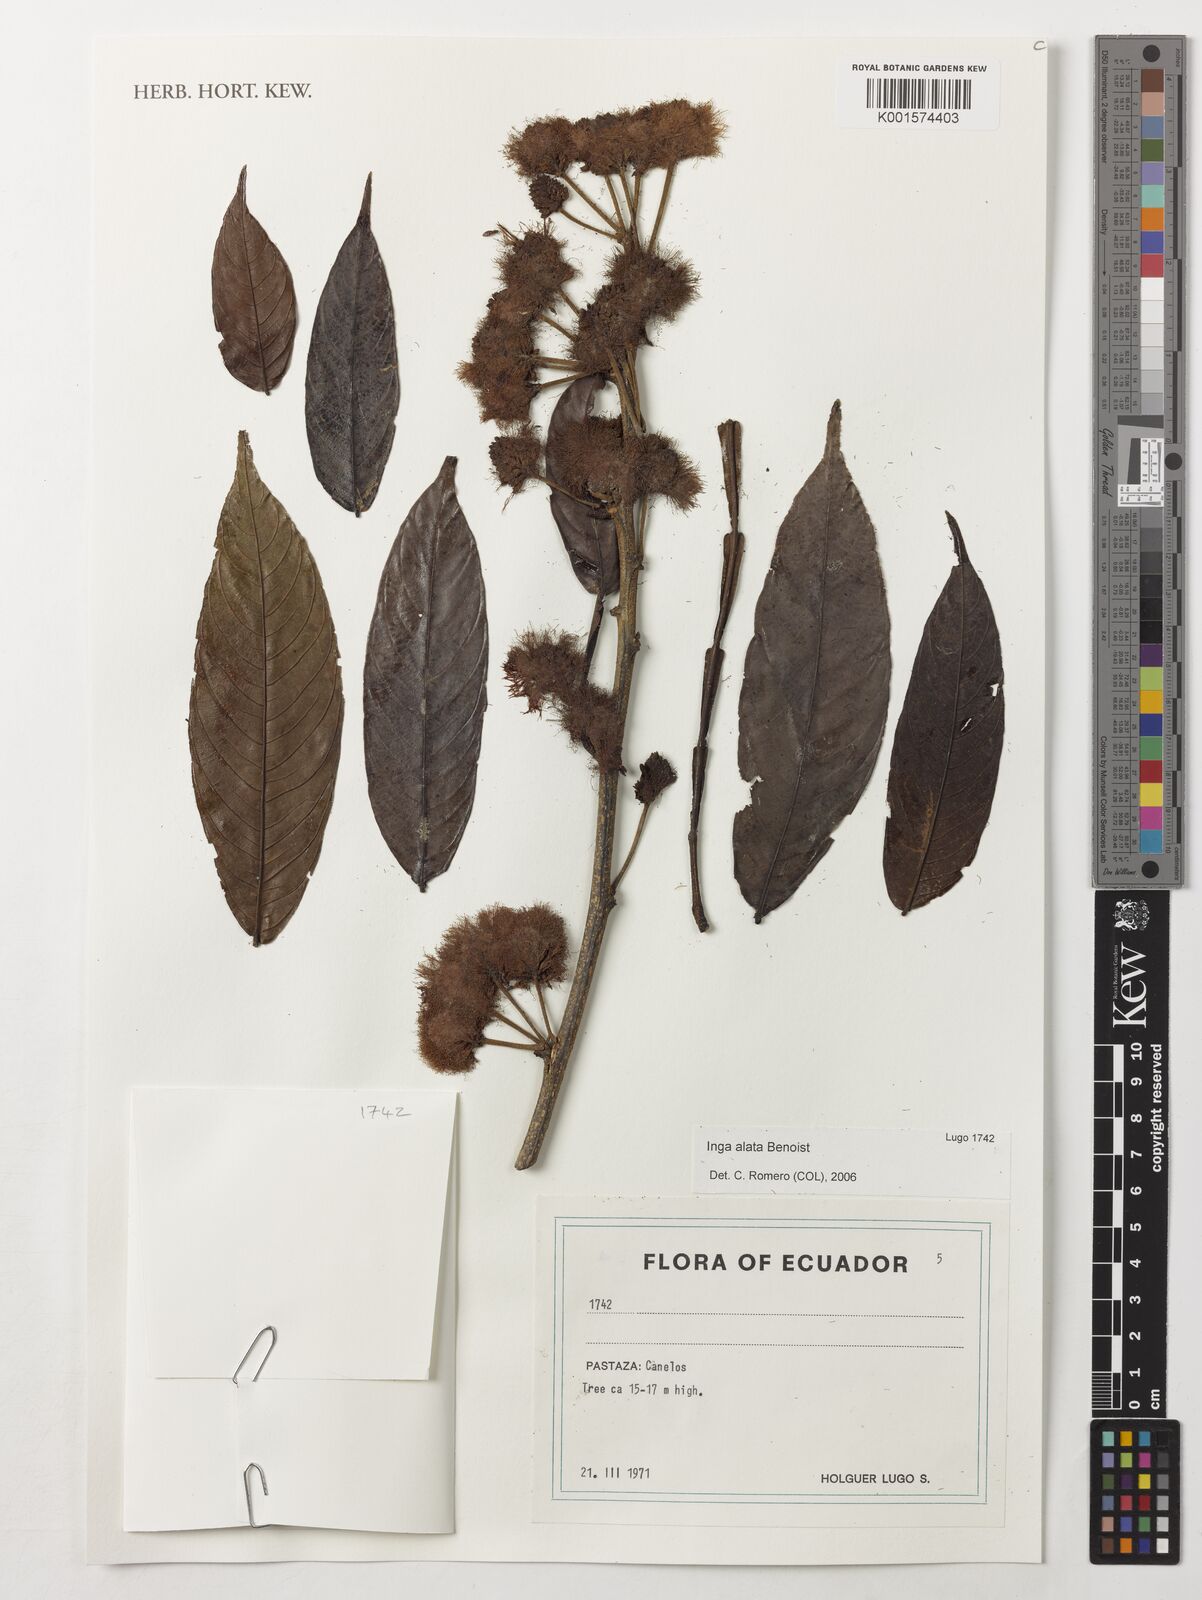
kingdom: Plantae
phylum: Tracheophyta
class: Magnoliopsida
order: Fabales
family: Fabaceae
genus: Inga
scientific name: Inga alata
